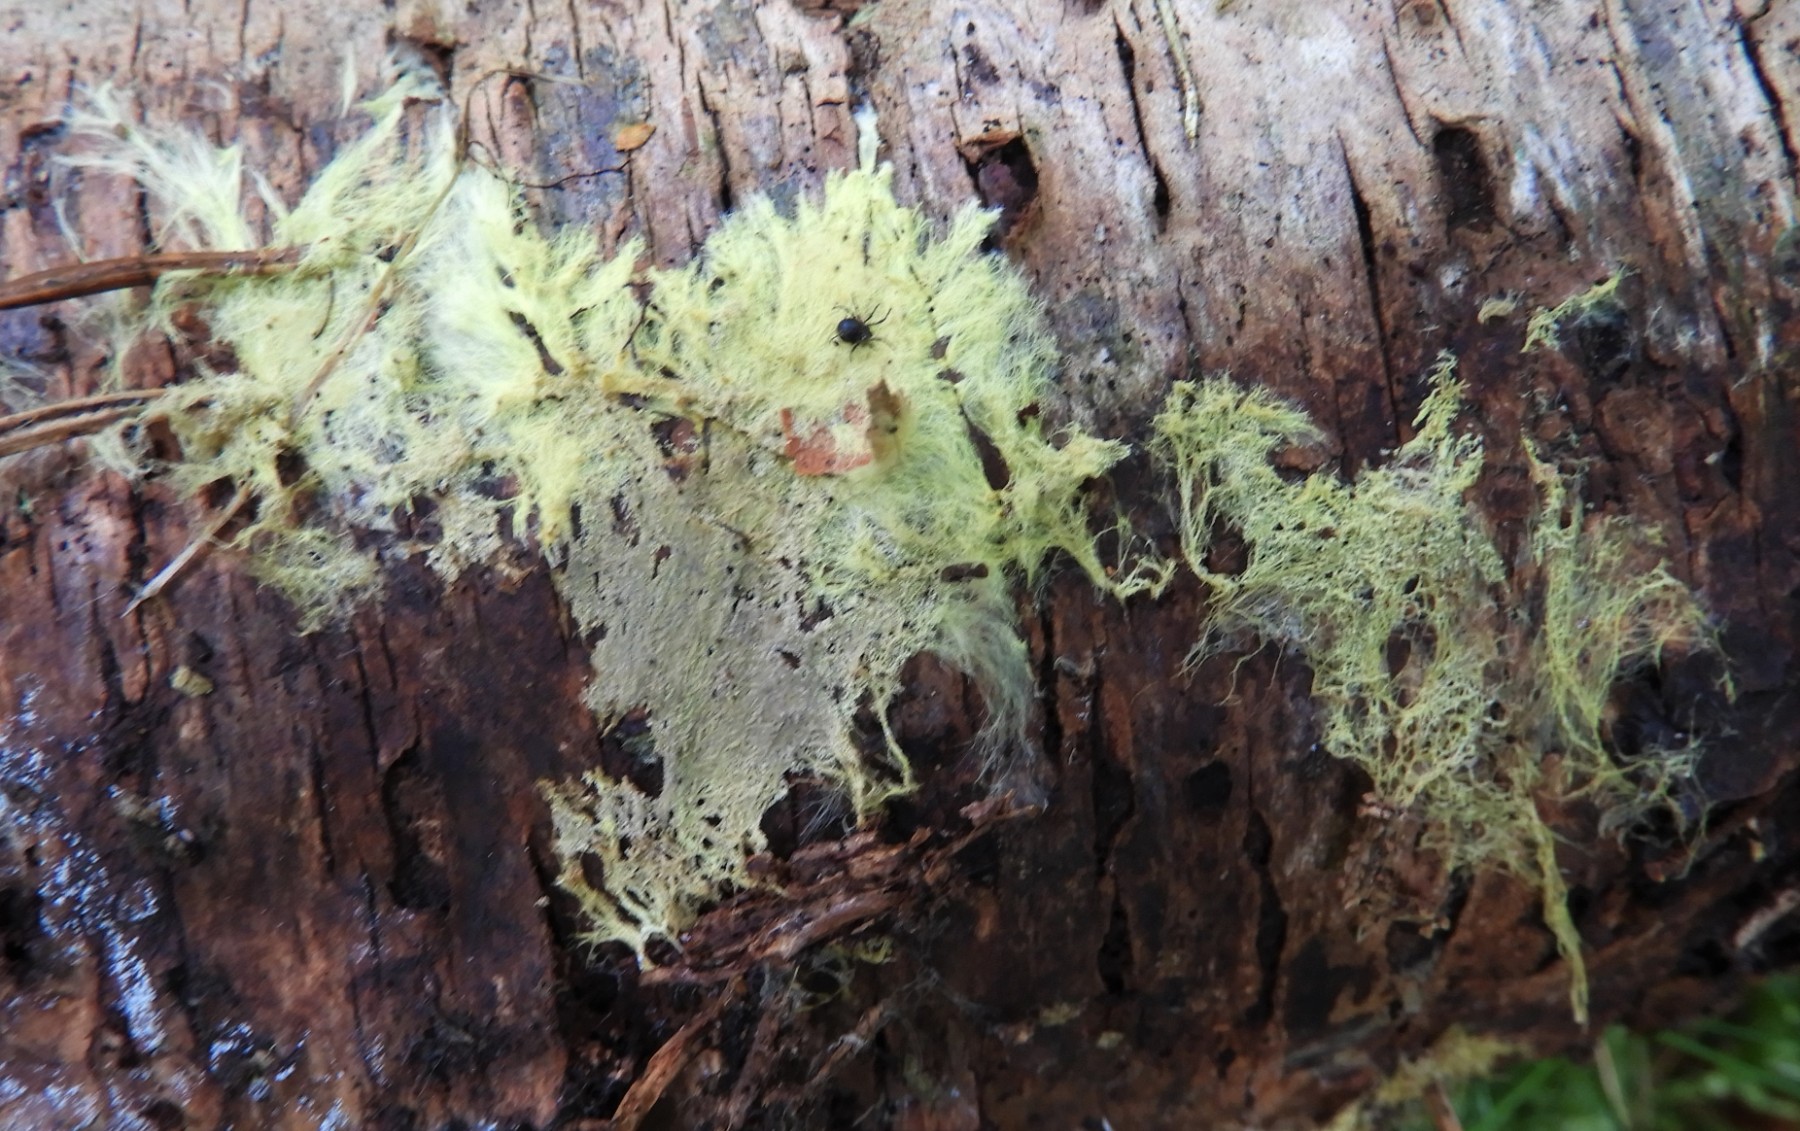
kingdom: Fungi
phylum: Basidiomycota
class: Agaricomycetes
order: Russulales
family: Xenasmataceae
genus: Xenasmatella
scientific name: Xenasmatella vaga
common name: svovl-strenghinde
